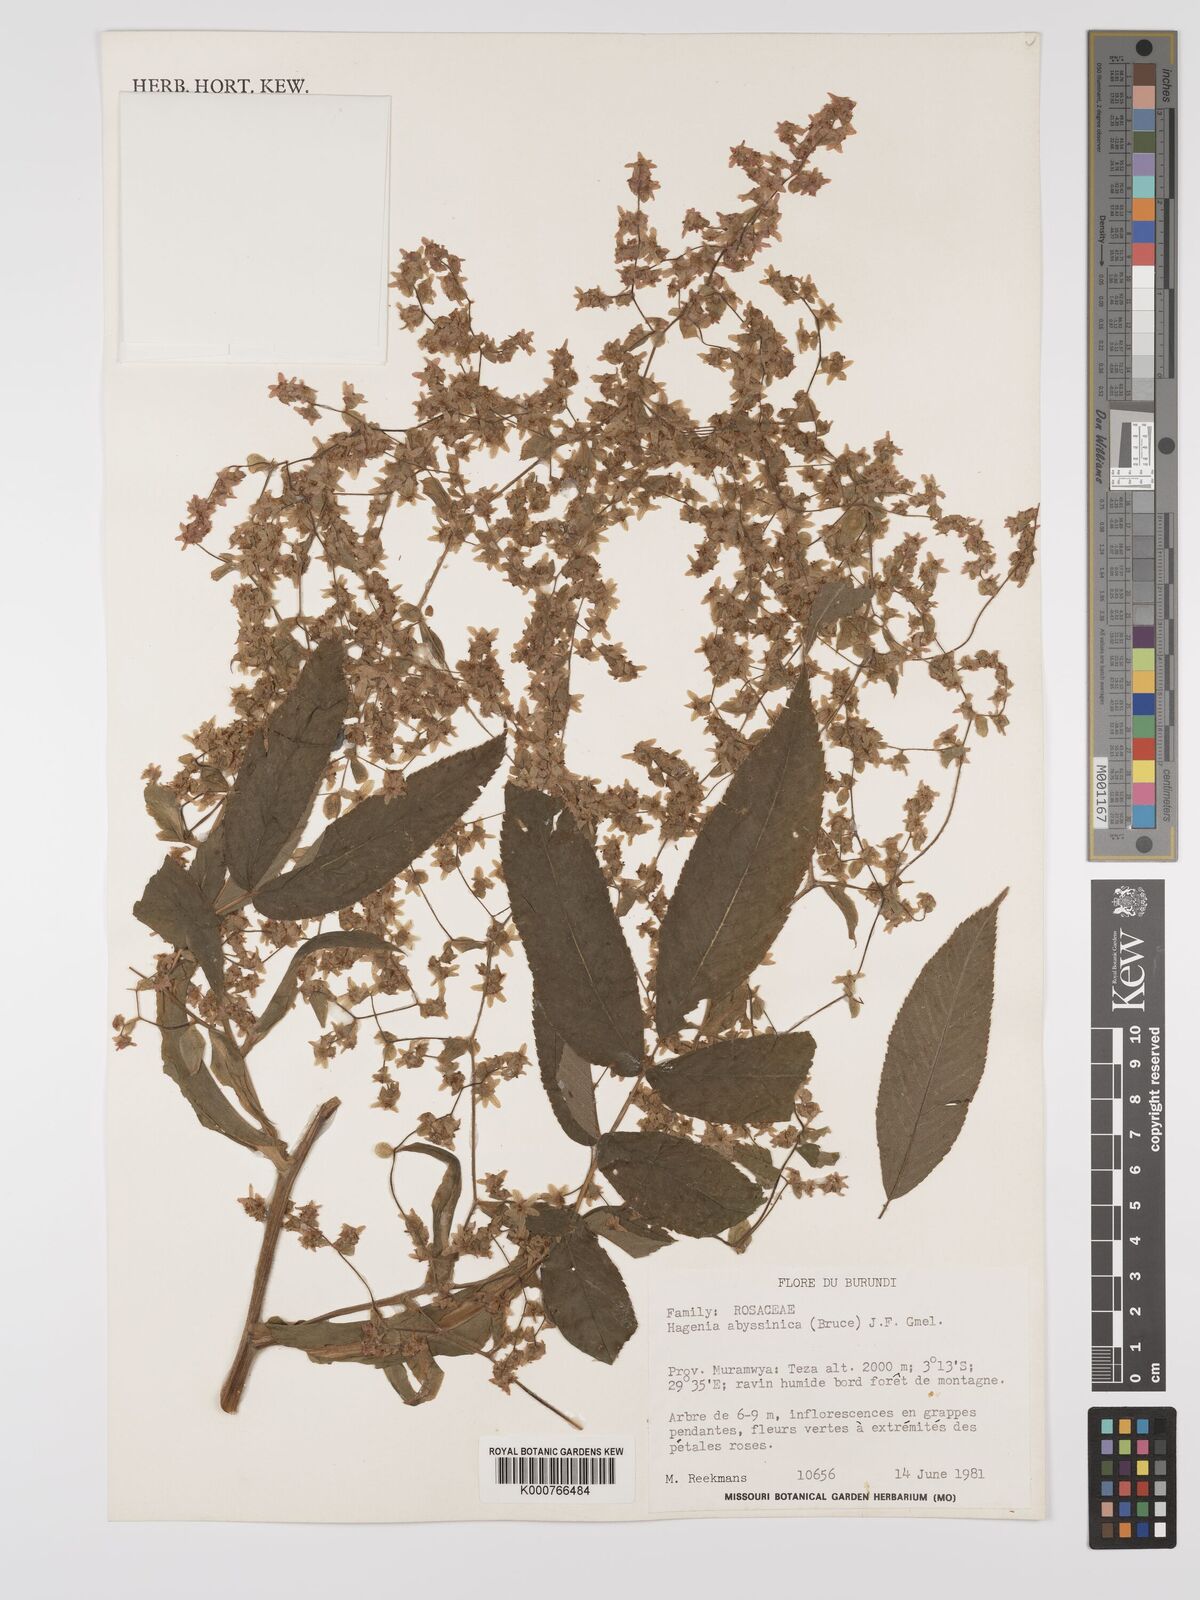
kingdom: Plantae
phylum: Tracheophyta
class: Magnoliopsida
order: Rosales
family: Rosaceae
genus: Hagenia
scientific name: Hagenia abyssinica
